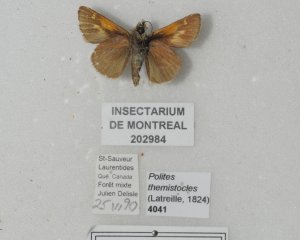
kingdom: Animalia
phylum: Arthropoda
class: Insecta
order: Lepidoptera
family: Hesperiidae
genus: Polites
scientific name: Polites themistocles
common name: Tawny-edged Skipper
